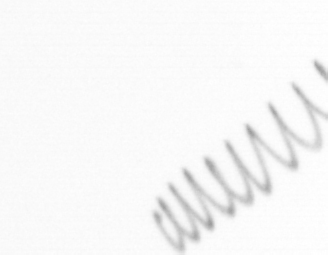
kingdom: Chromista
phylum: Ochrophyta
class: Bacillariophyceae
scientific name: Bacillariophyceae
